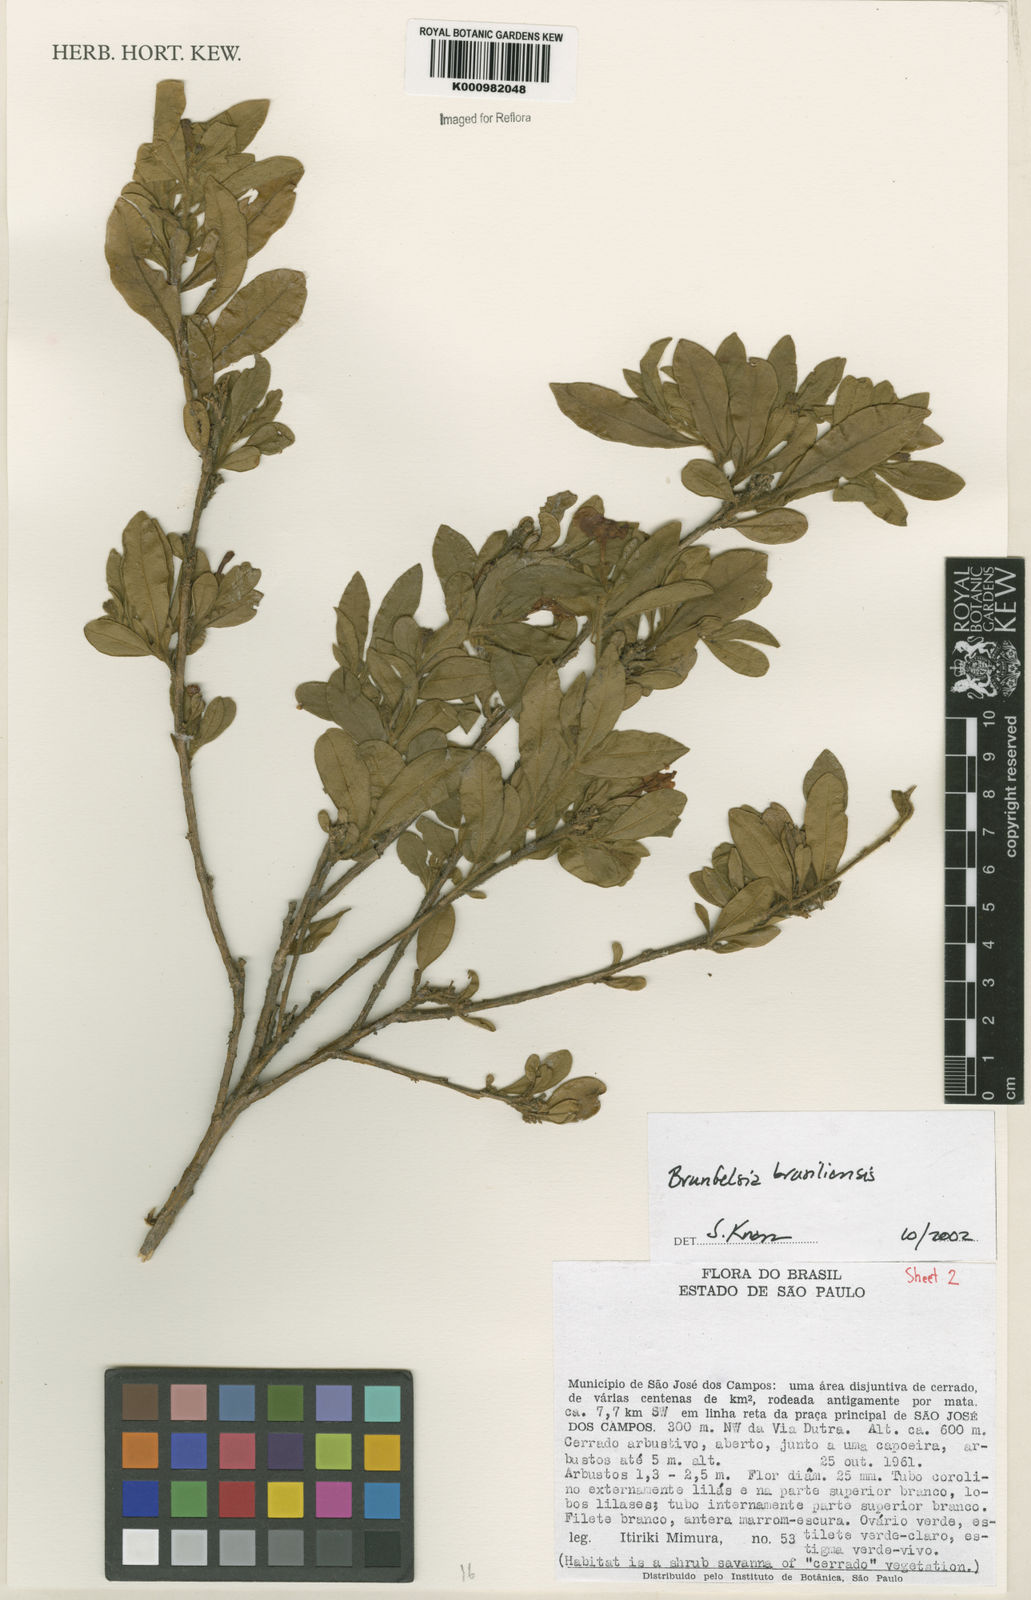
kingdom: Plantae
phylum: Tracheophyta
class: Magnoliopsida
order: Solanales
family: Solanaceae
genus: Brunfelsia
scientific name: Brunfelsia brasiliensis
